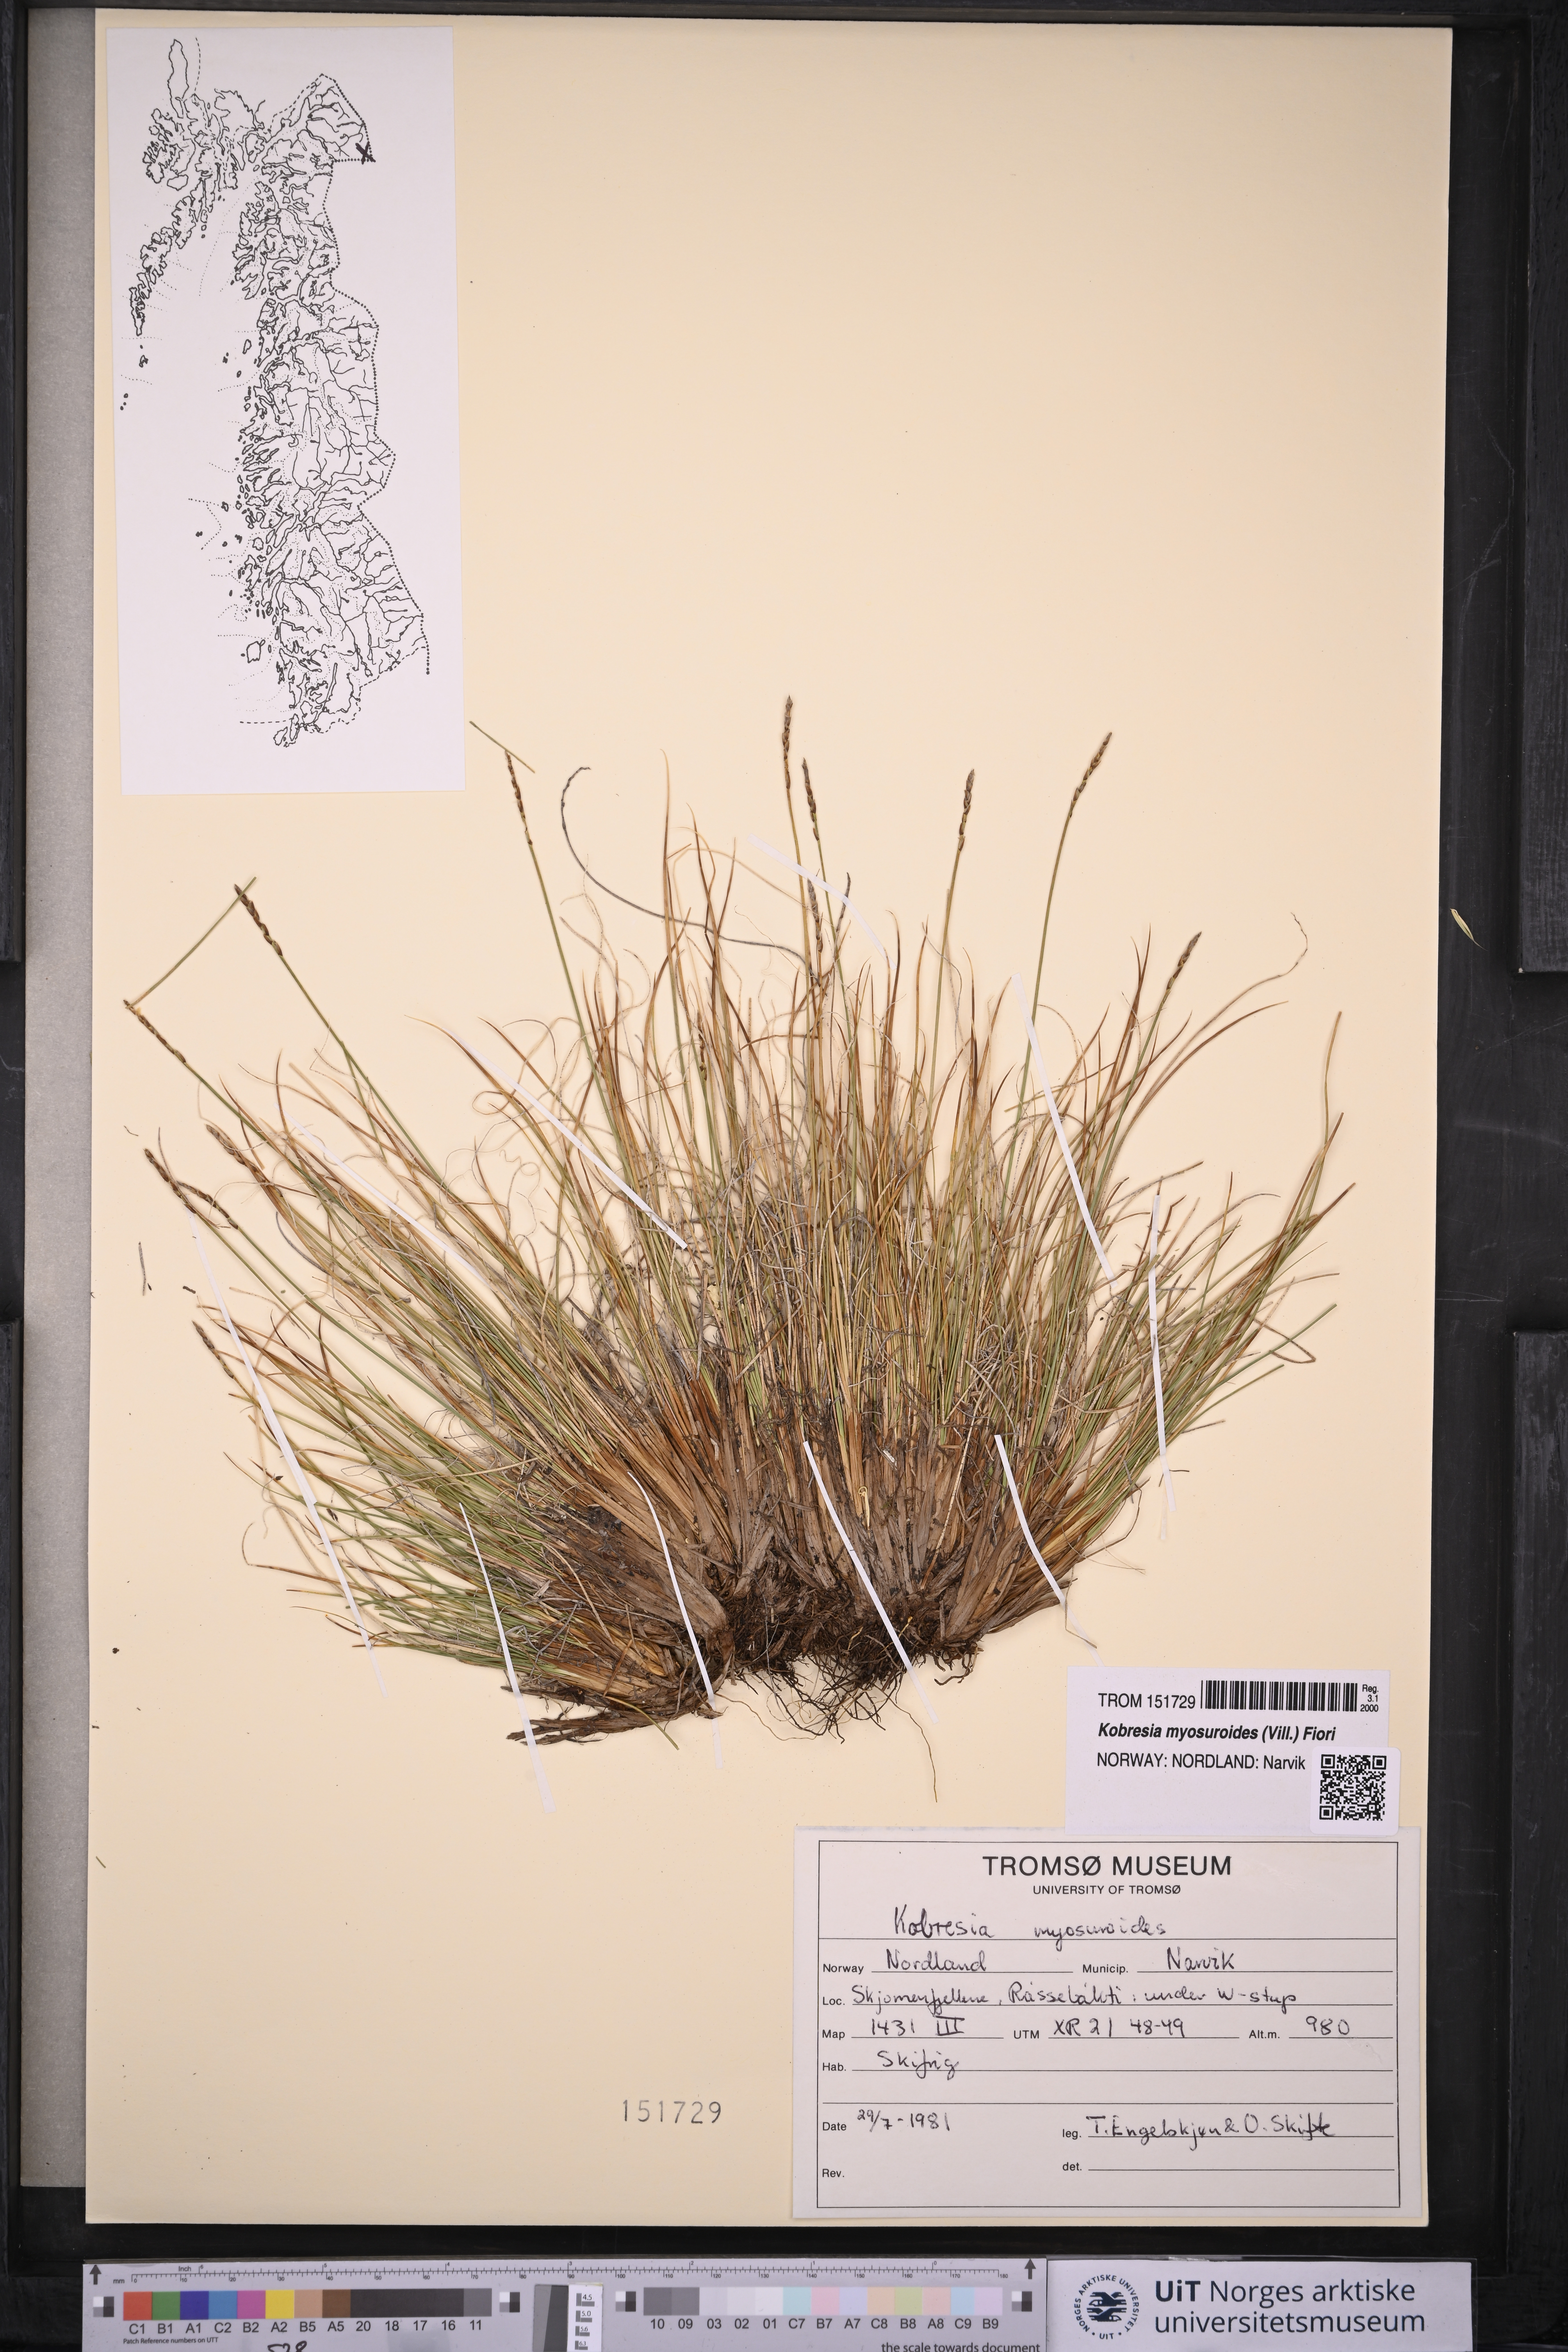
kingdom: Plantae
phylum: Tracheophyta
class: Liliopsida
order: Poales
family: Cyperaceae
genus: Carex
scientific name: Carex myosuroides
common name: Bellard's bog sedge
